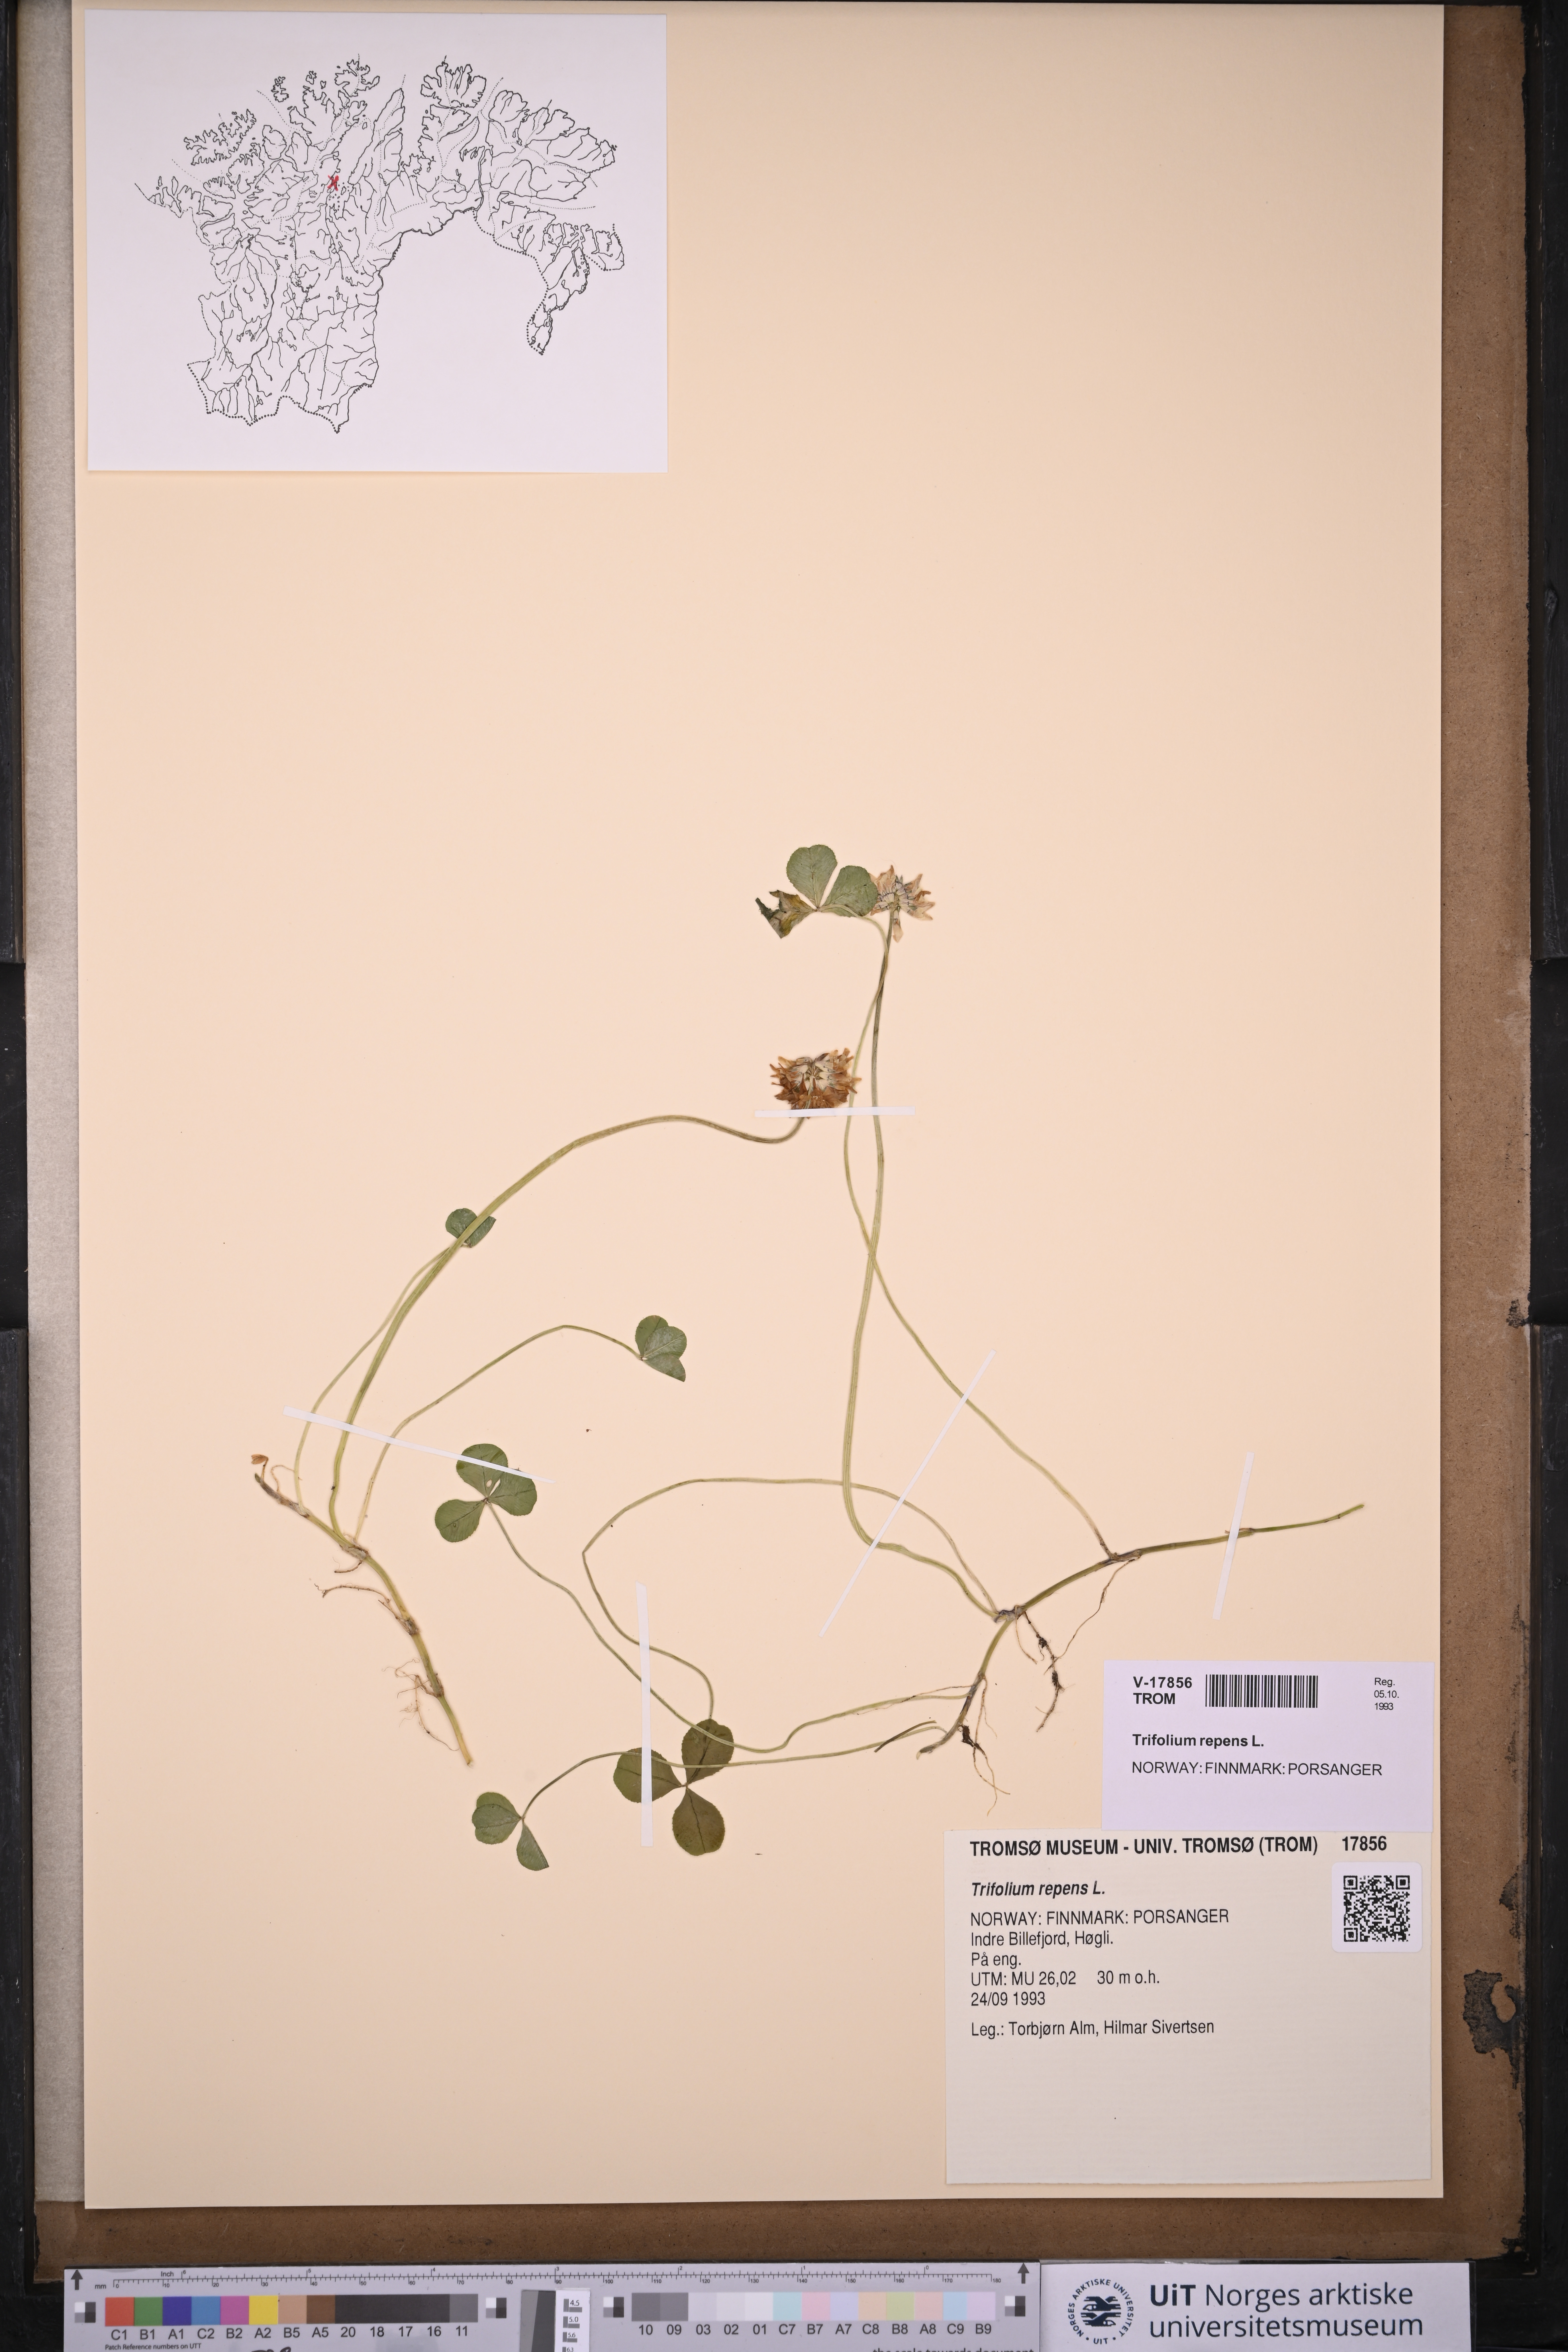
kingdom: Plantae
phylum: Tracheophyta
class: Magnoliopsida
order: Fabales
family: Fabaceae
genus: Trifolium
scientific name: Trifolium repens
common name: White clover
